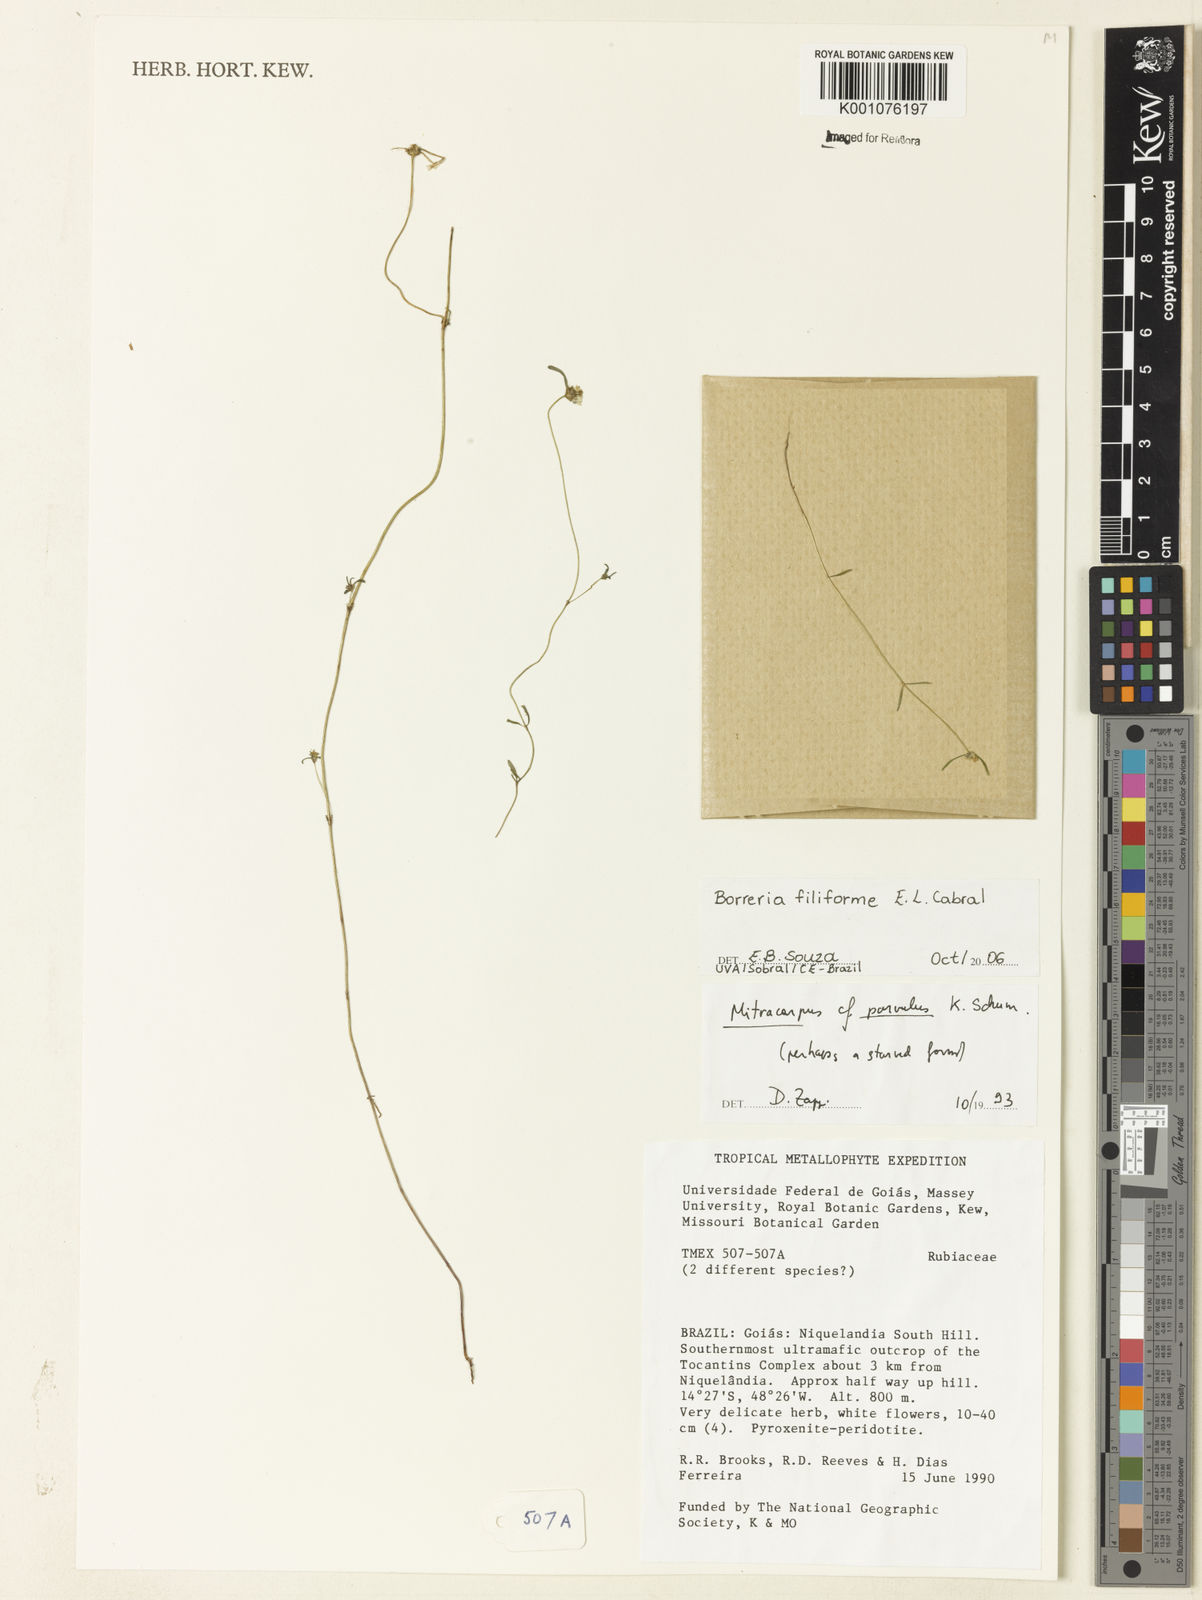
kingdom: Plantae
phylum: Tracheophyta
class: Magnoliopsida
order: Gentianales
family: Rubiaceae
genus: Spermacoce
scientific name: Spermacoce filiformis
